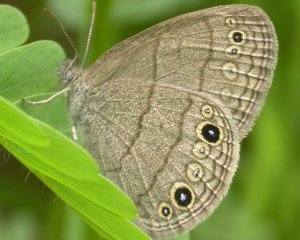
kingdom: Animalia
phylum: Arthropoda
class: Insecta
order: Lepidoptera
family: Nymphalidae
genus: Hermeuptychia
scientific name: Hermeuptychia hermes
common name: Carolina Satyr
